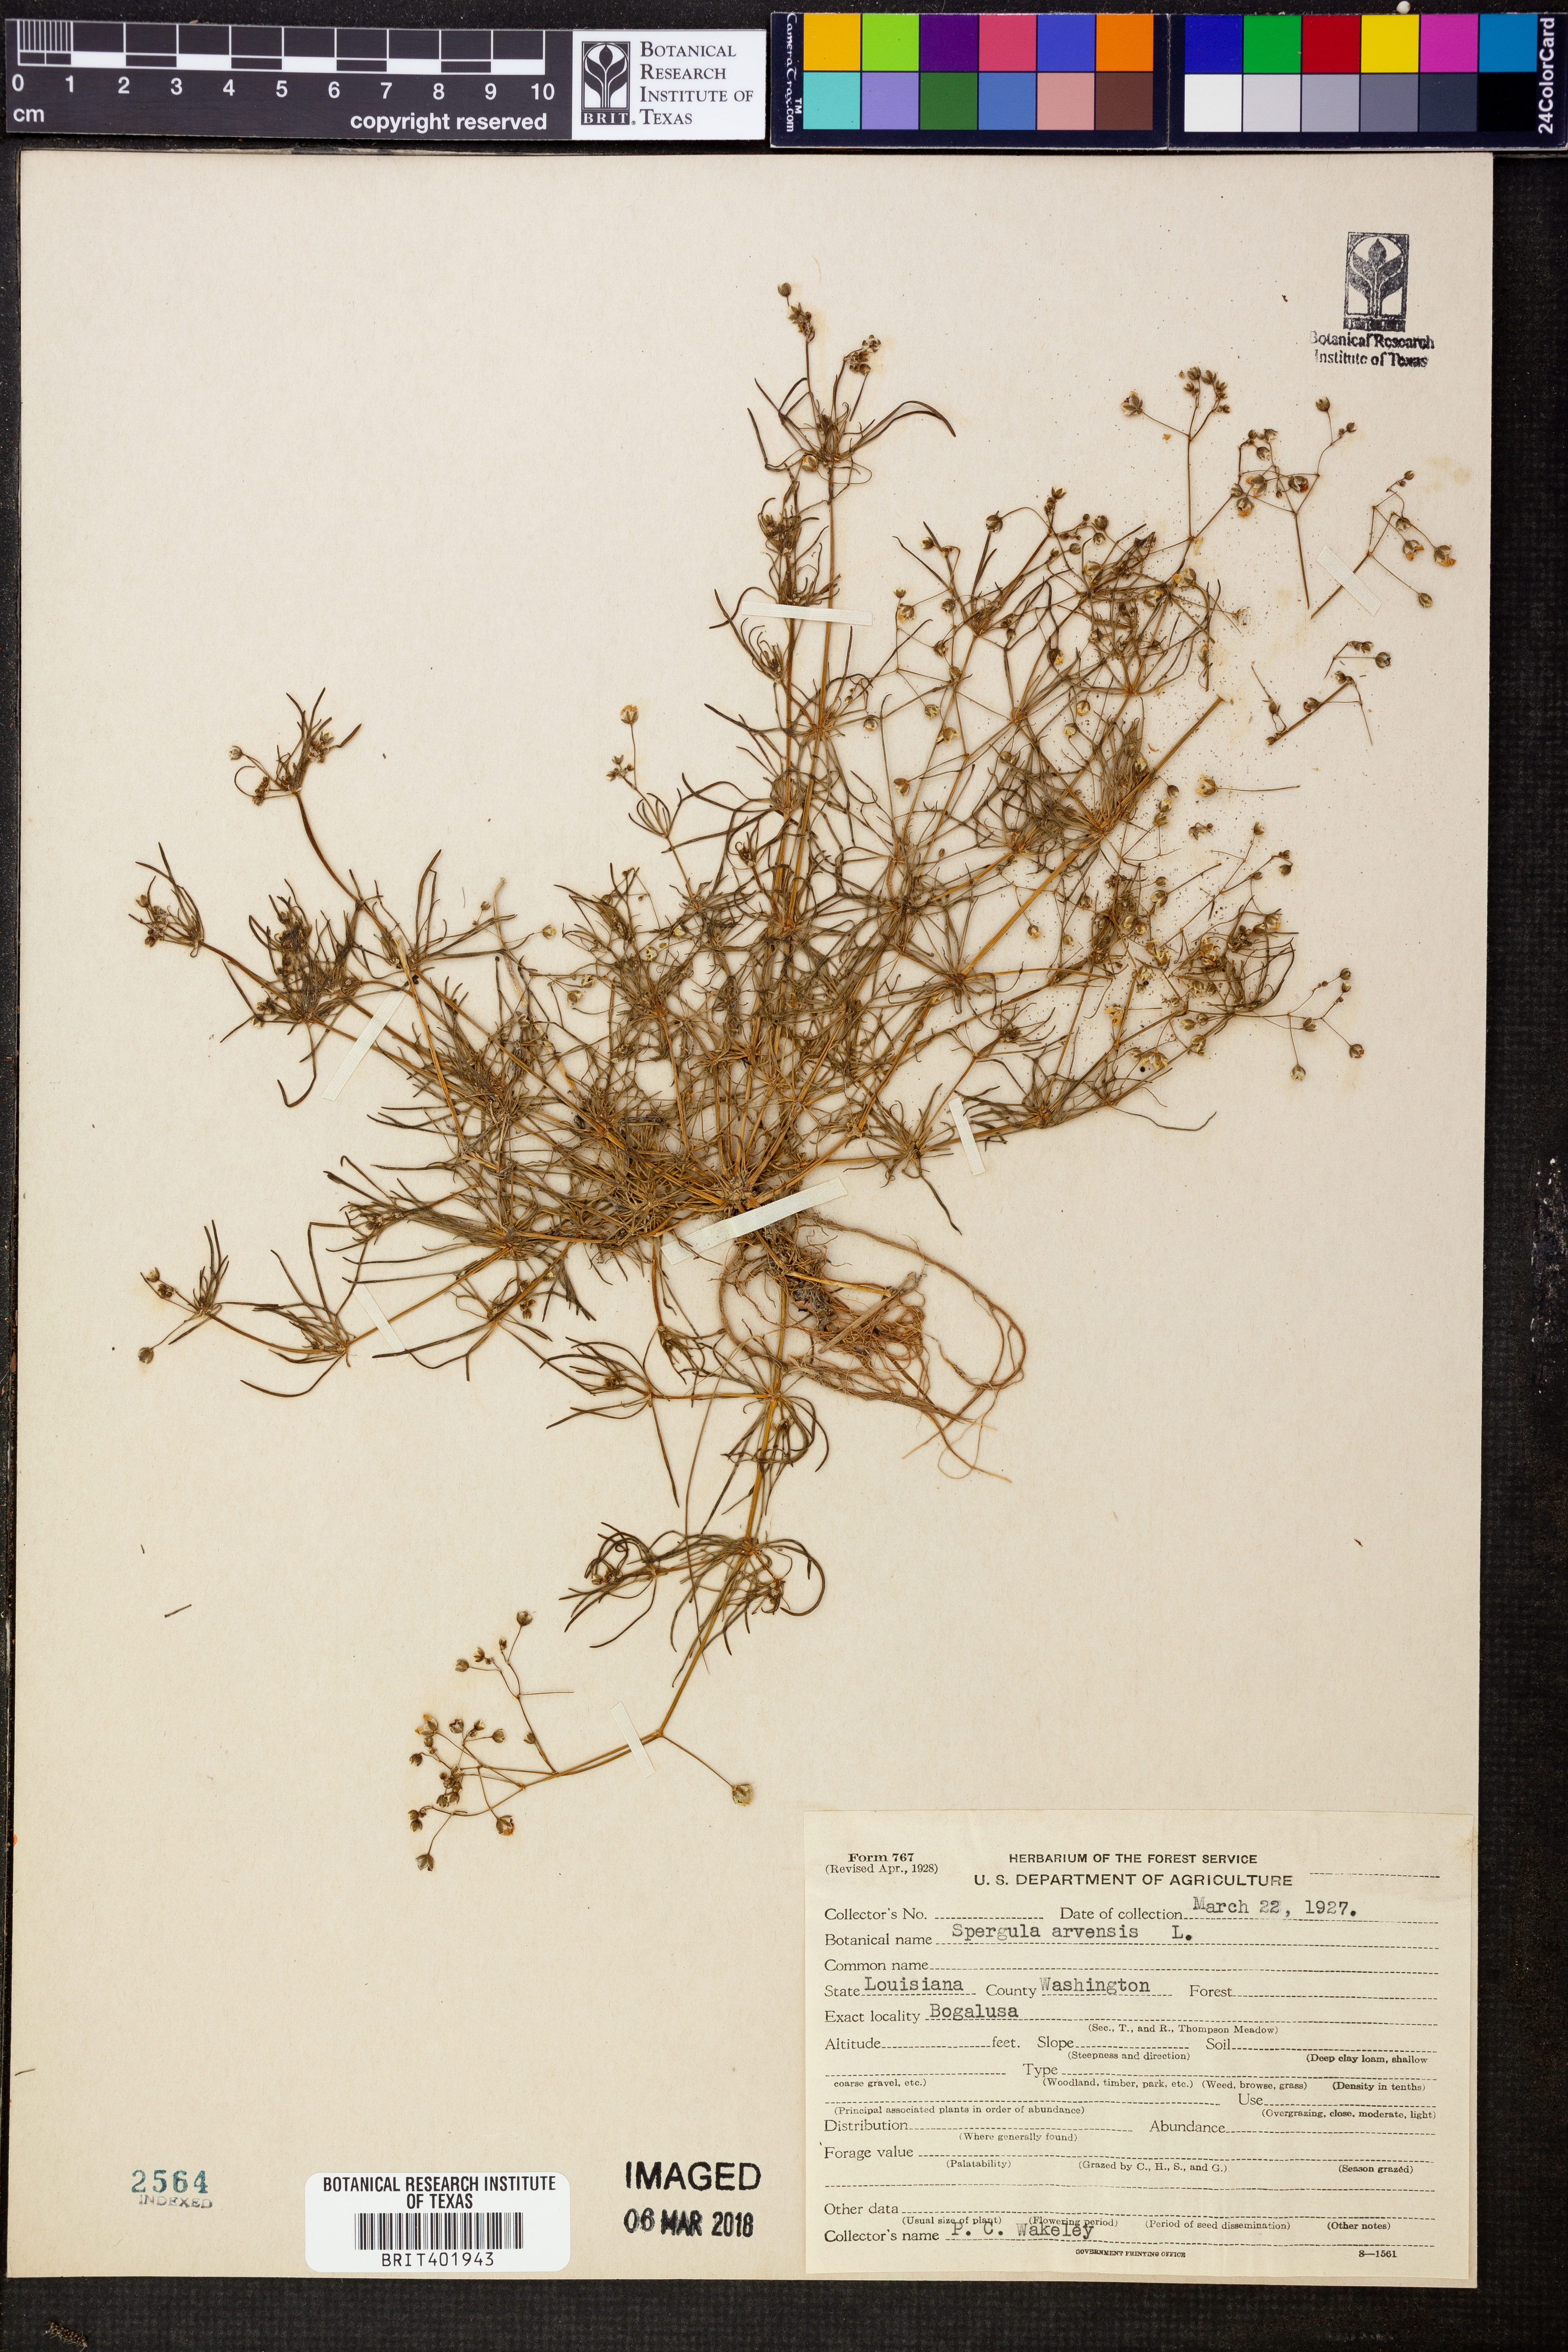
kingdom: Plantae
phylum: Tracheophyta
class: Magnoliopsida
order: Caryophyllales
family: Caryophyllaceae
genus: Spergula
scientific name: Spergula arvensis
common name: Corn spurrey
